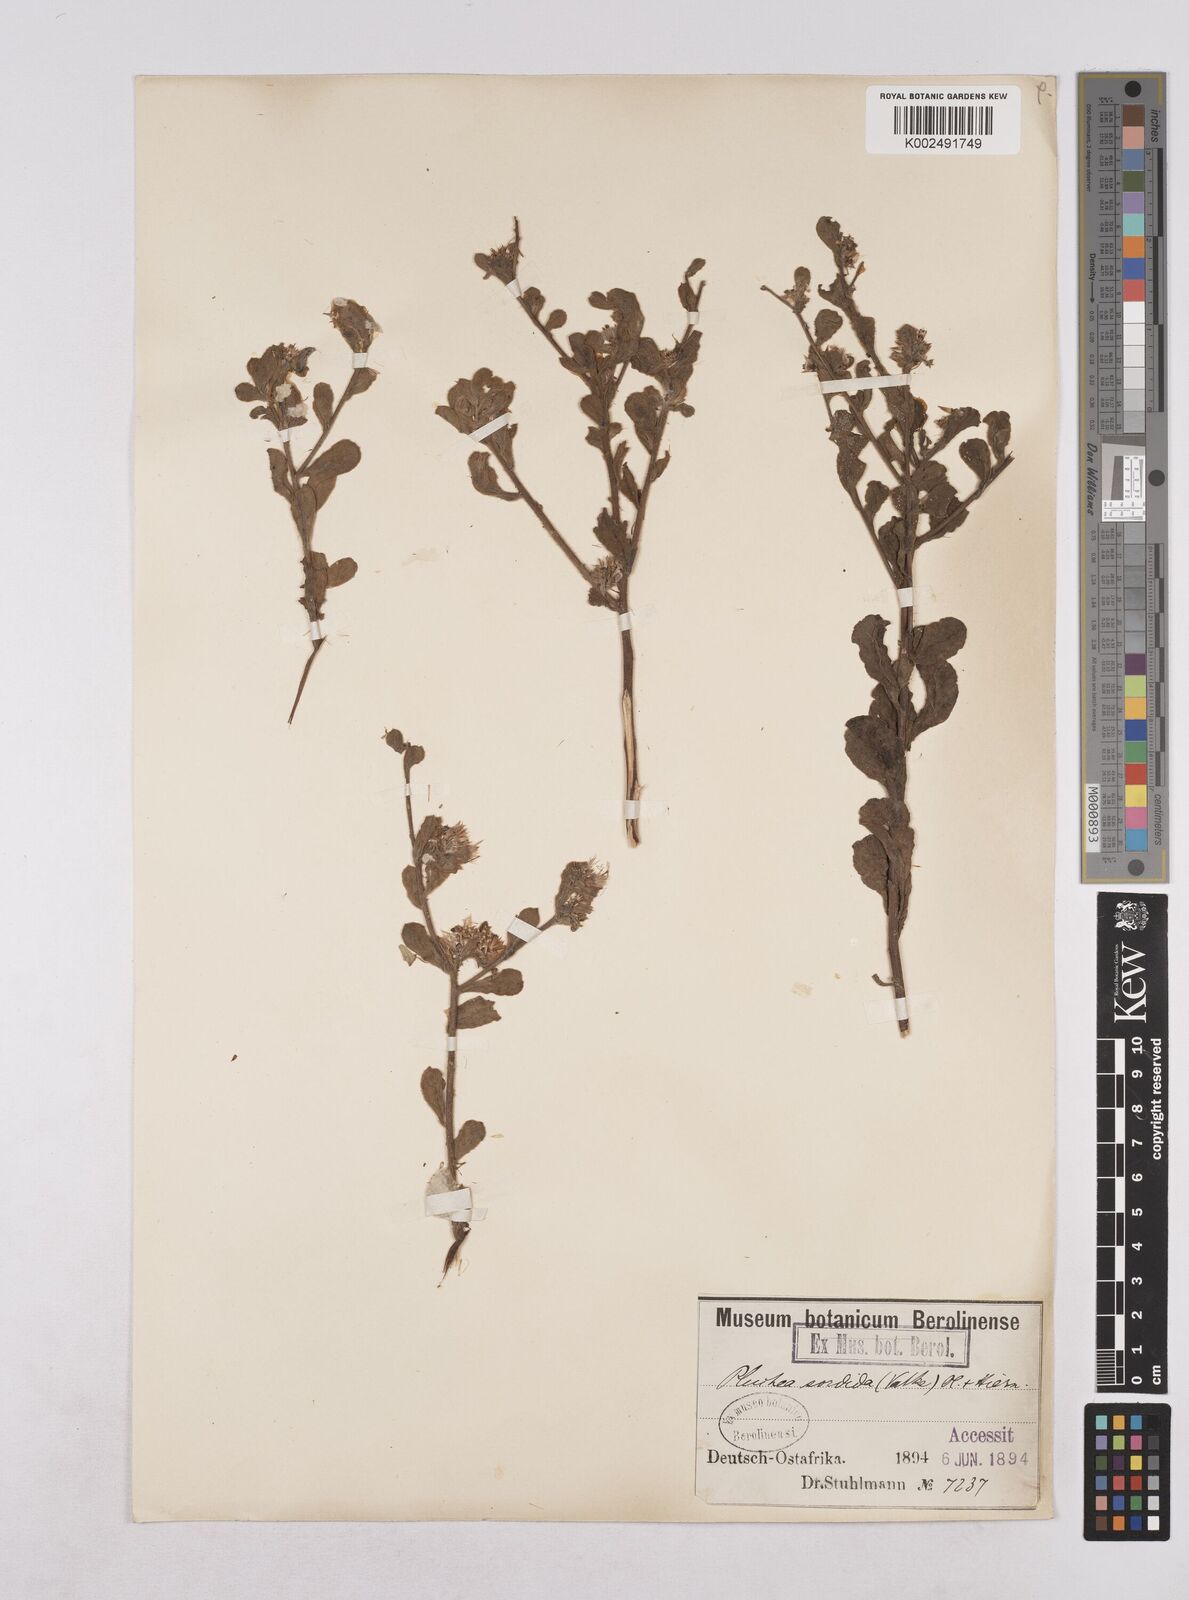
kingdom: Plantae
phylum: Tracheophyta
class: Magnoliopsida
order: Asterales
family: Asteraceae
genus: Pluchea
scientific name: Pluchea sordida
